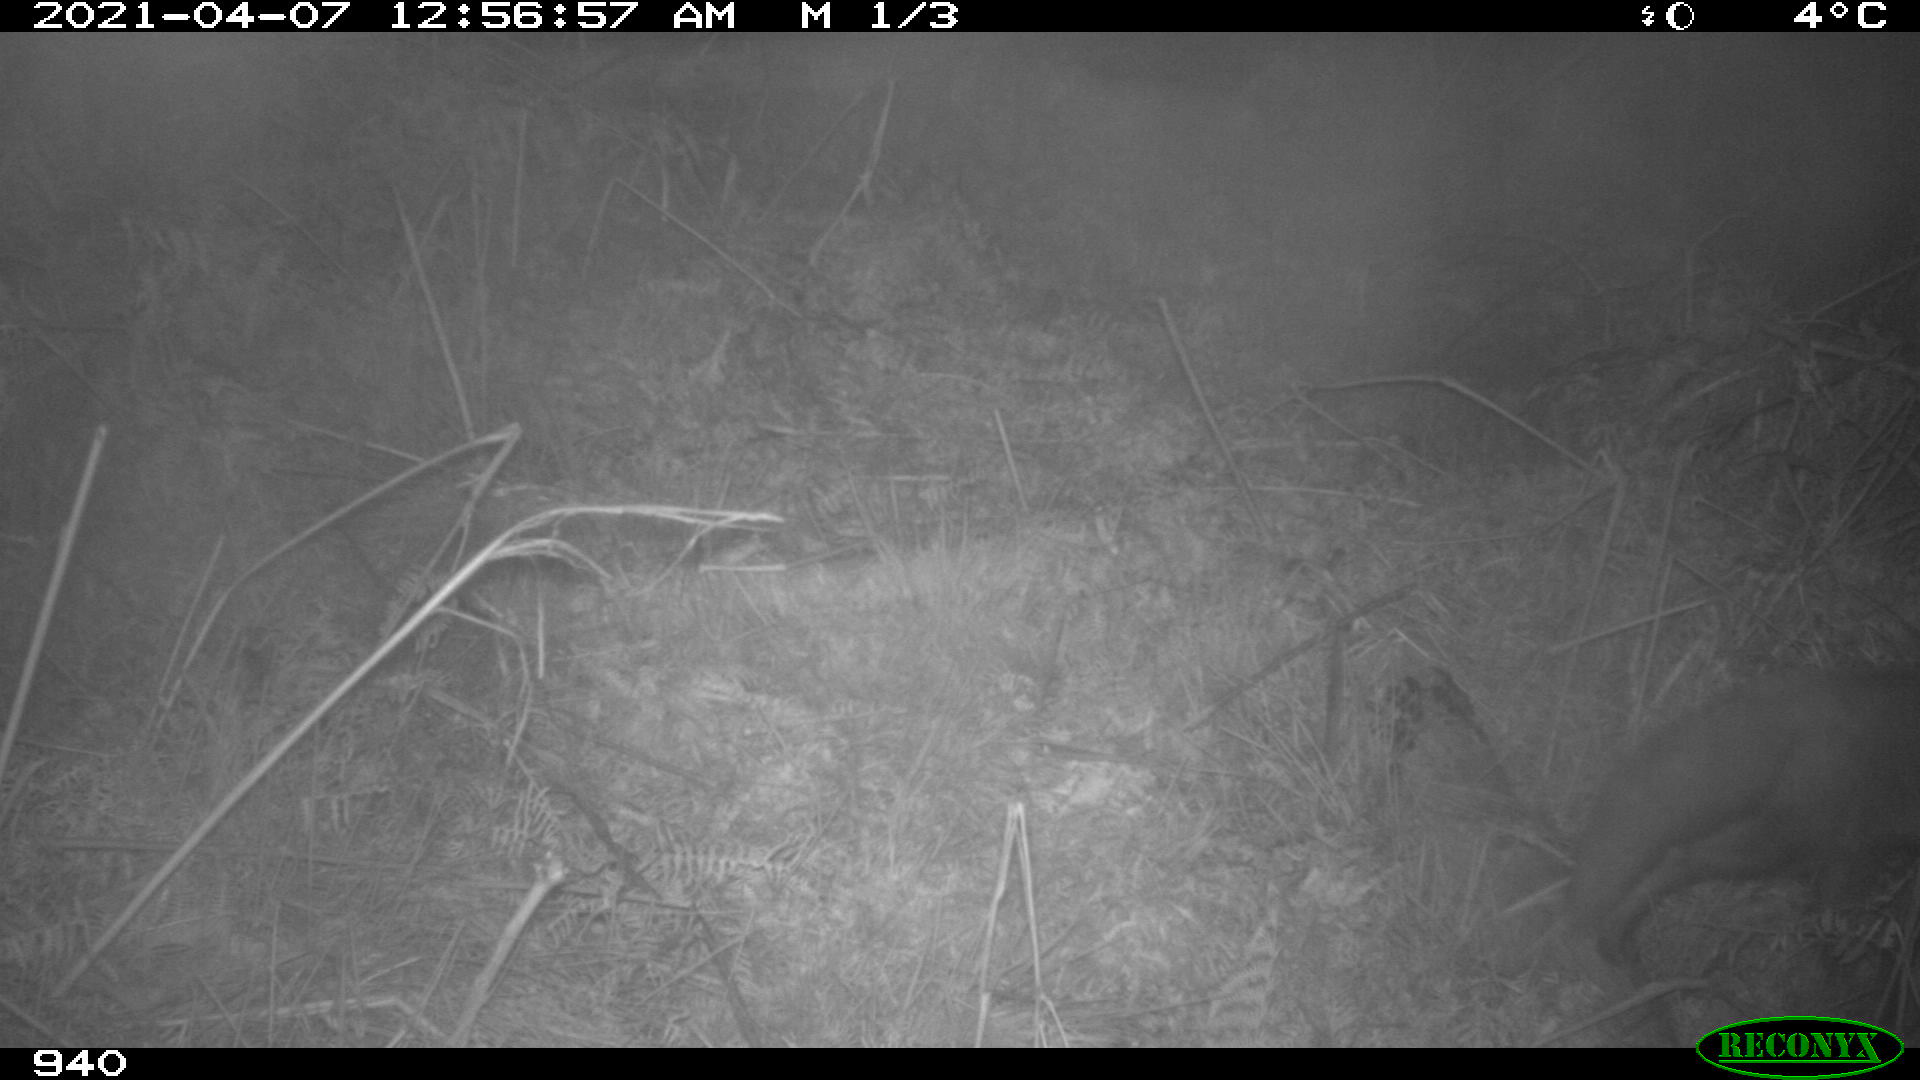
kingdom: Animalia
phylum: Chordata
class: Mammalia
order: Carnivora
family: Canidae
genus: Vulpes
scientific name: Vulpes vulpes
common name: Red fox
